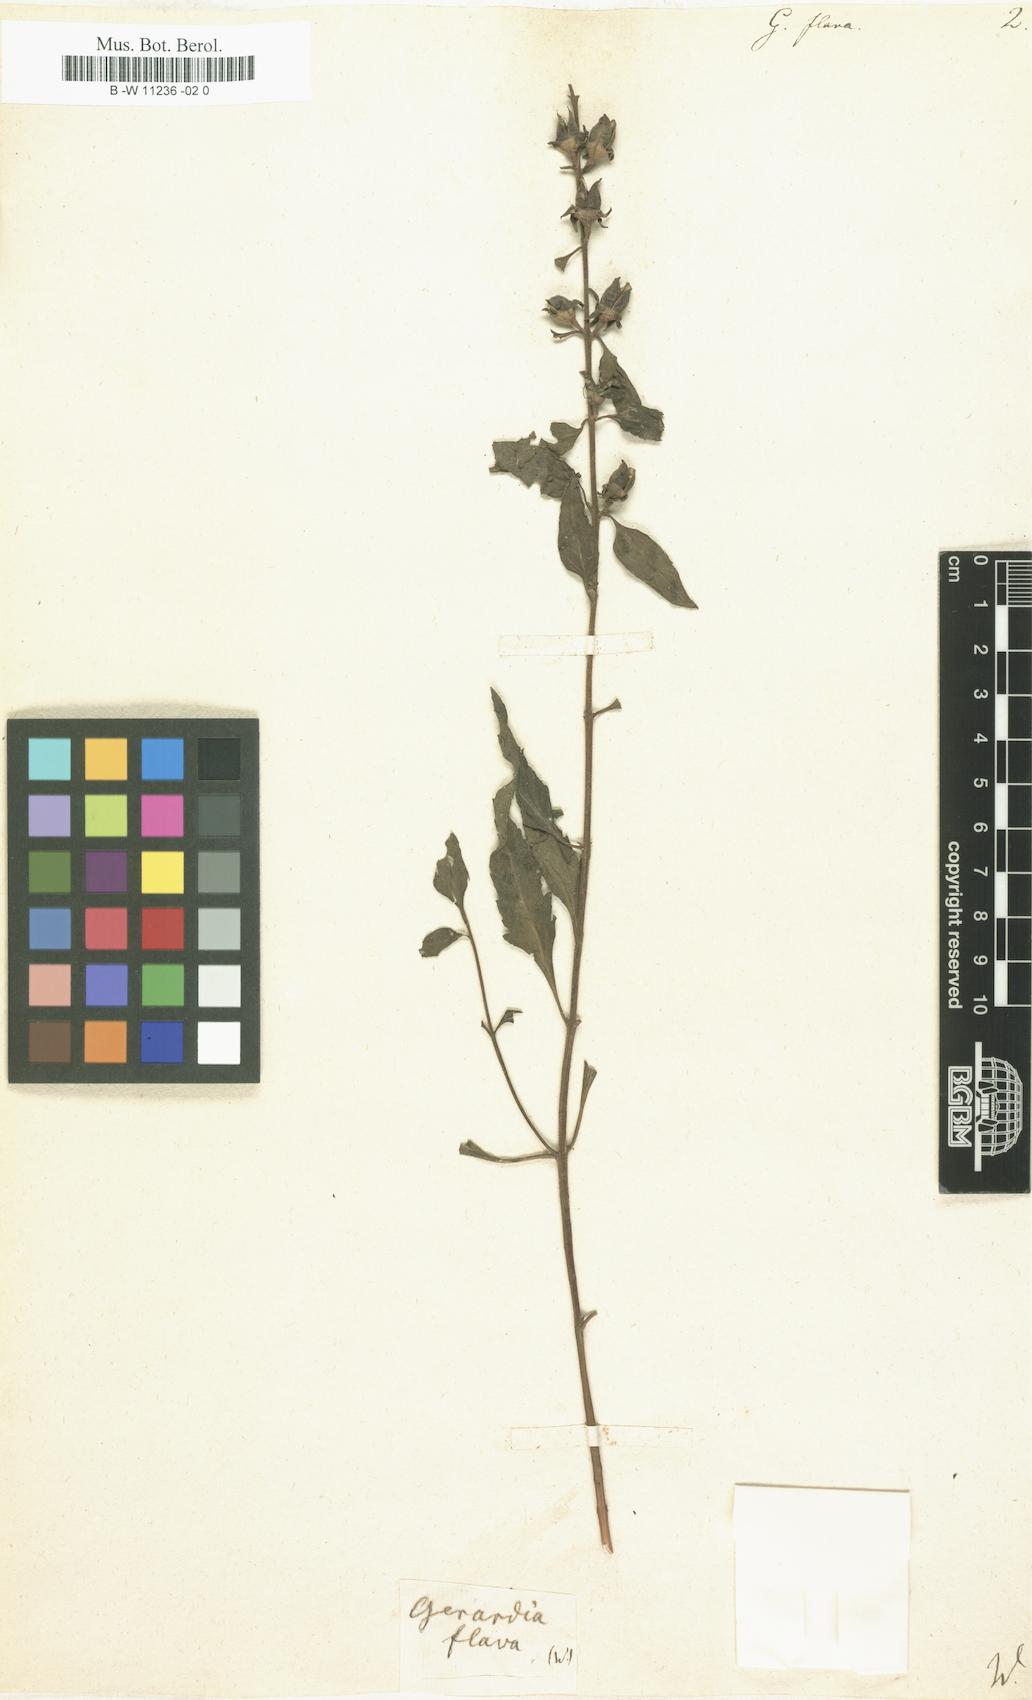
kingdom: Plantae
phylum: Tracheophyta
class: Magnoliopsida
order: Lamiales
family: Orobanchaceae
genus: Aureolaria
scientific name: Aureolaria flava
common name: Smooth false foxglove
